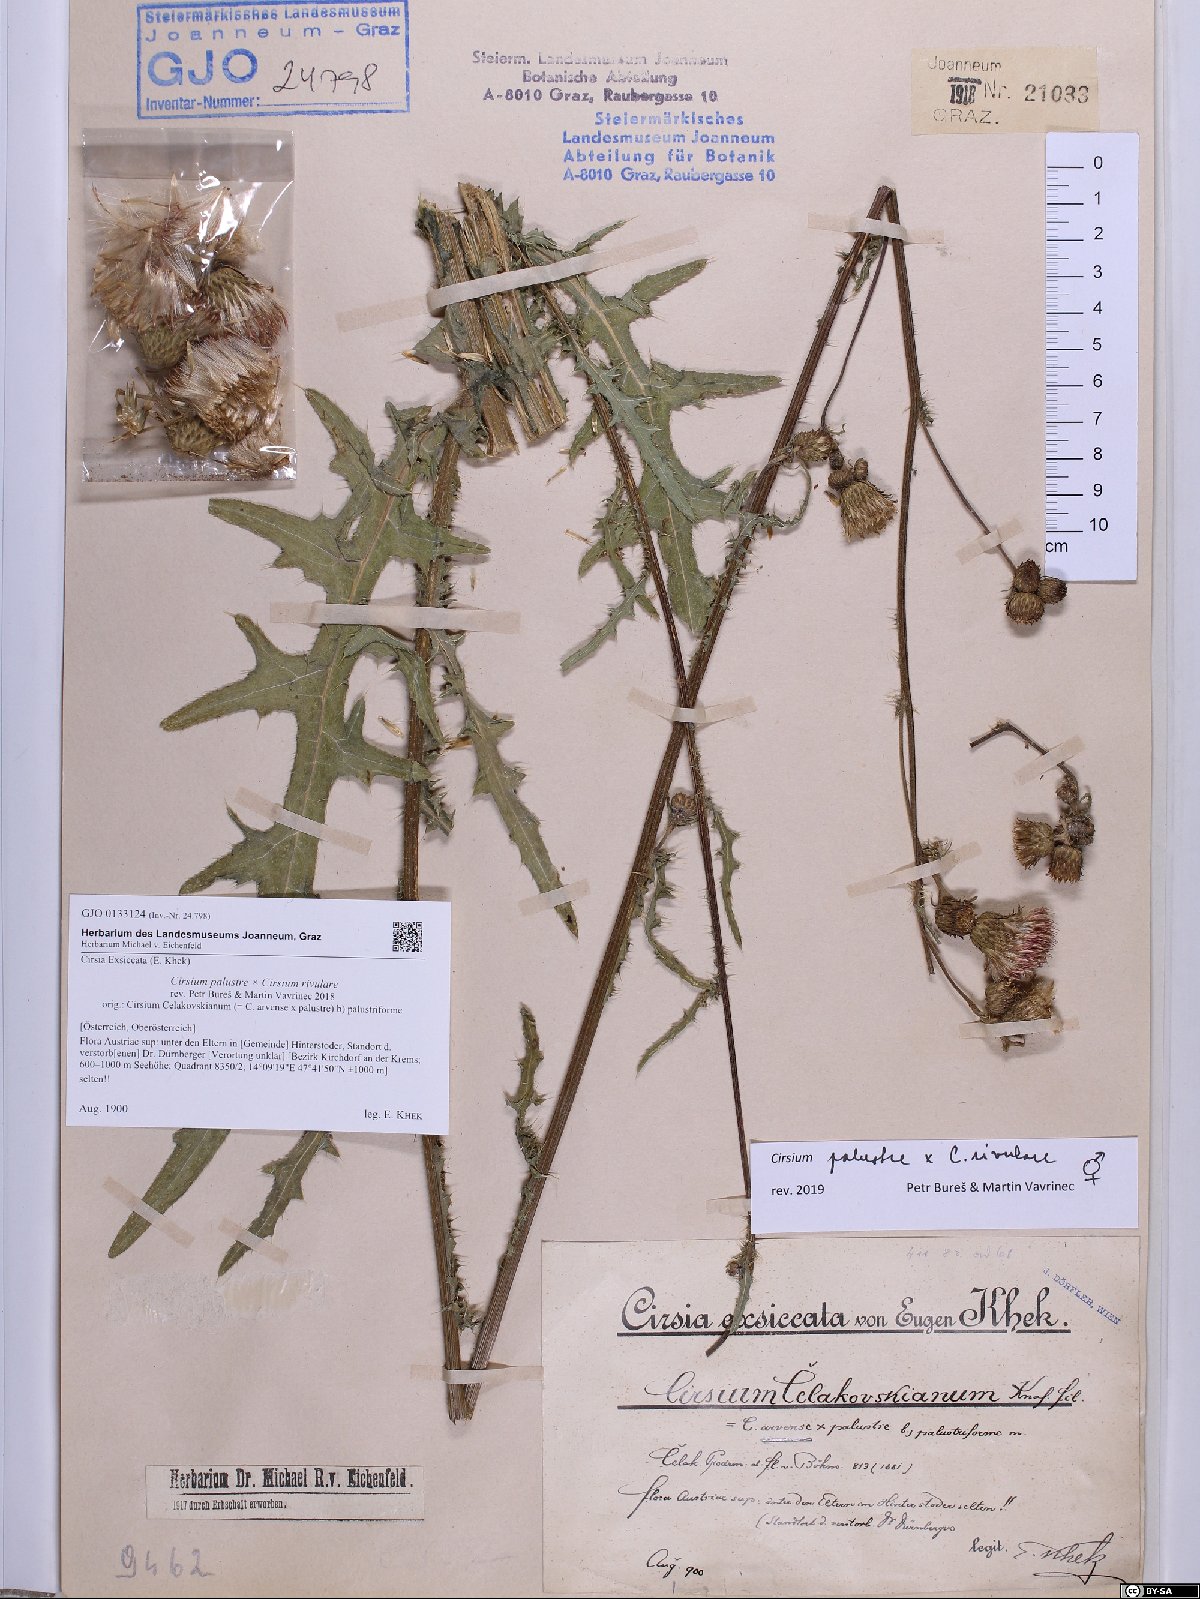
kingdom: Plantae
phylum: Tracheophyta
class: Magnoliopsida
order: Asterales
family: Asteraceae
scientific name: Asteraceae
